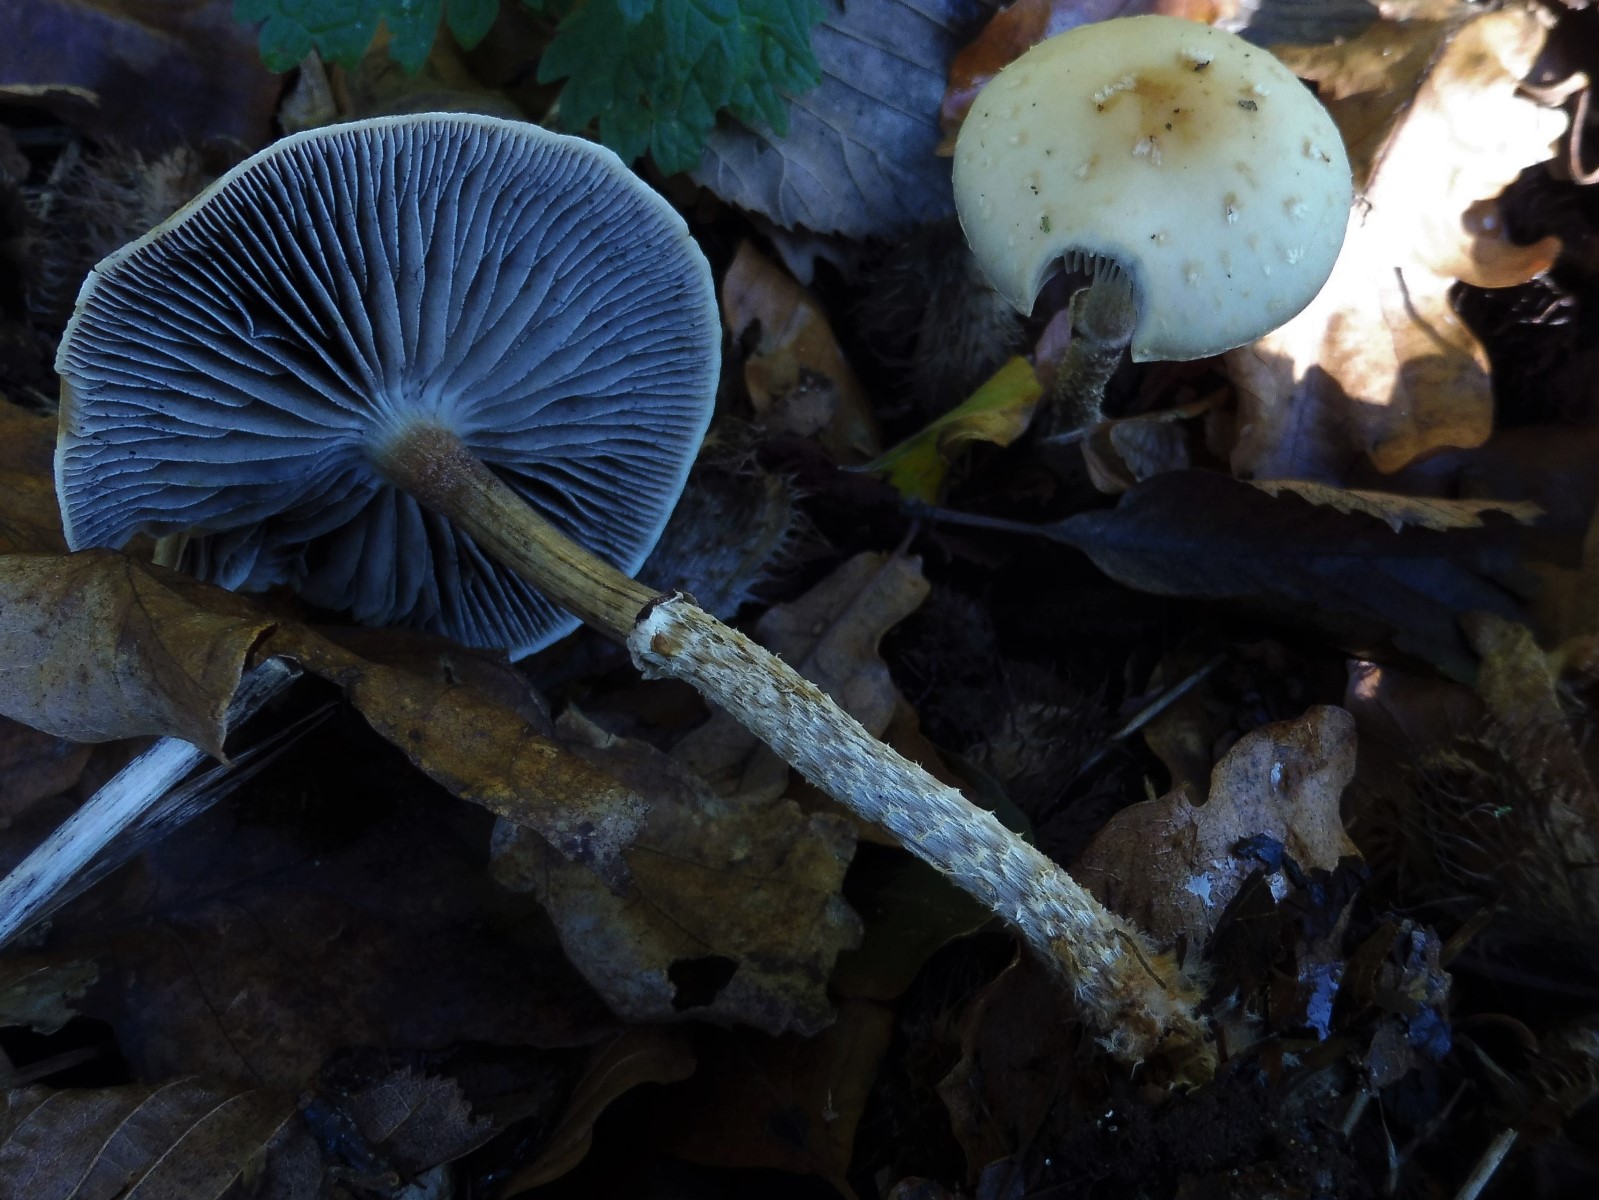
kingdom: Fungi
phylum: Basidiomycota
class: Agaricomycetes
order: Agaricales
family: Strophariaceae
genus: Leratiomyces
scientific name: Leratiomyces squamosus
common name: skællet bredblad
